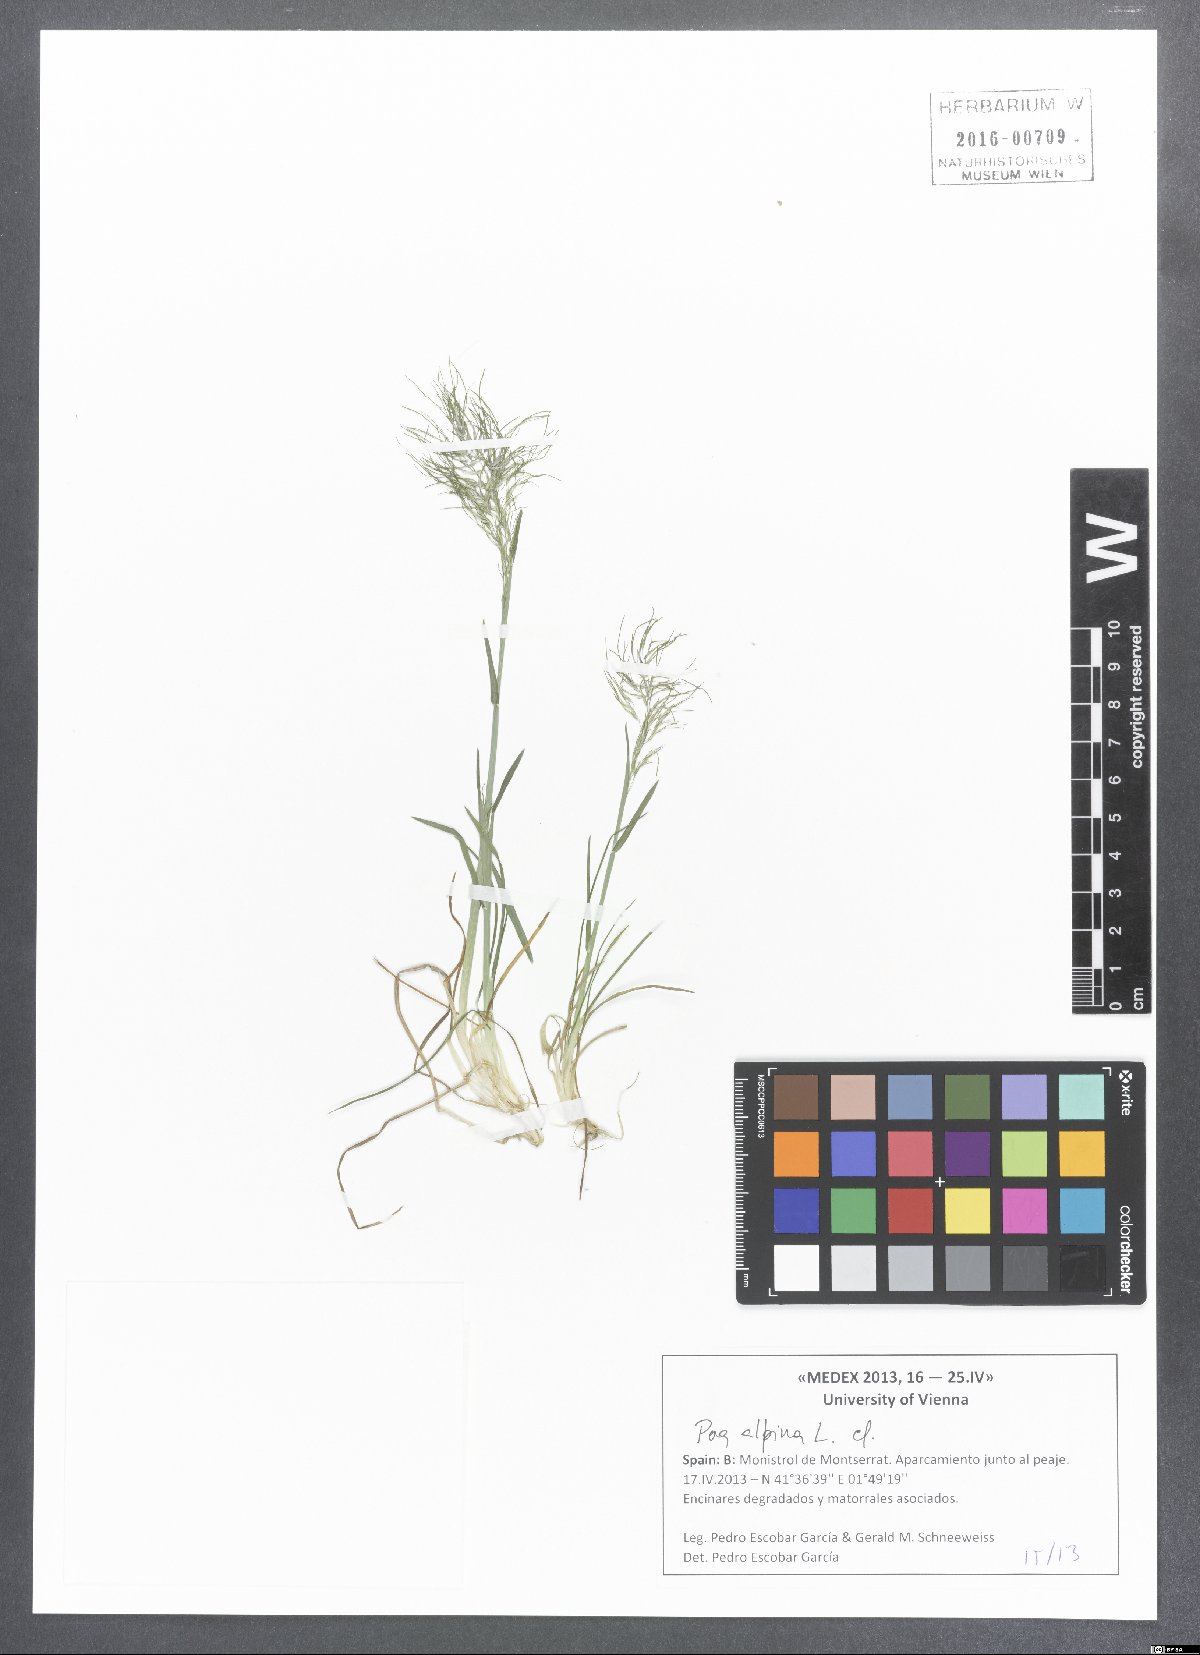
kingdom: Plantae
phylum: Tracheophyta
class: Liliopsida
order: Poales
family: Poaceae
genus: Poa
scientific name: Poa alpina
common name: Alpine bluegrass
